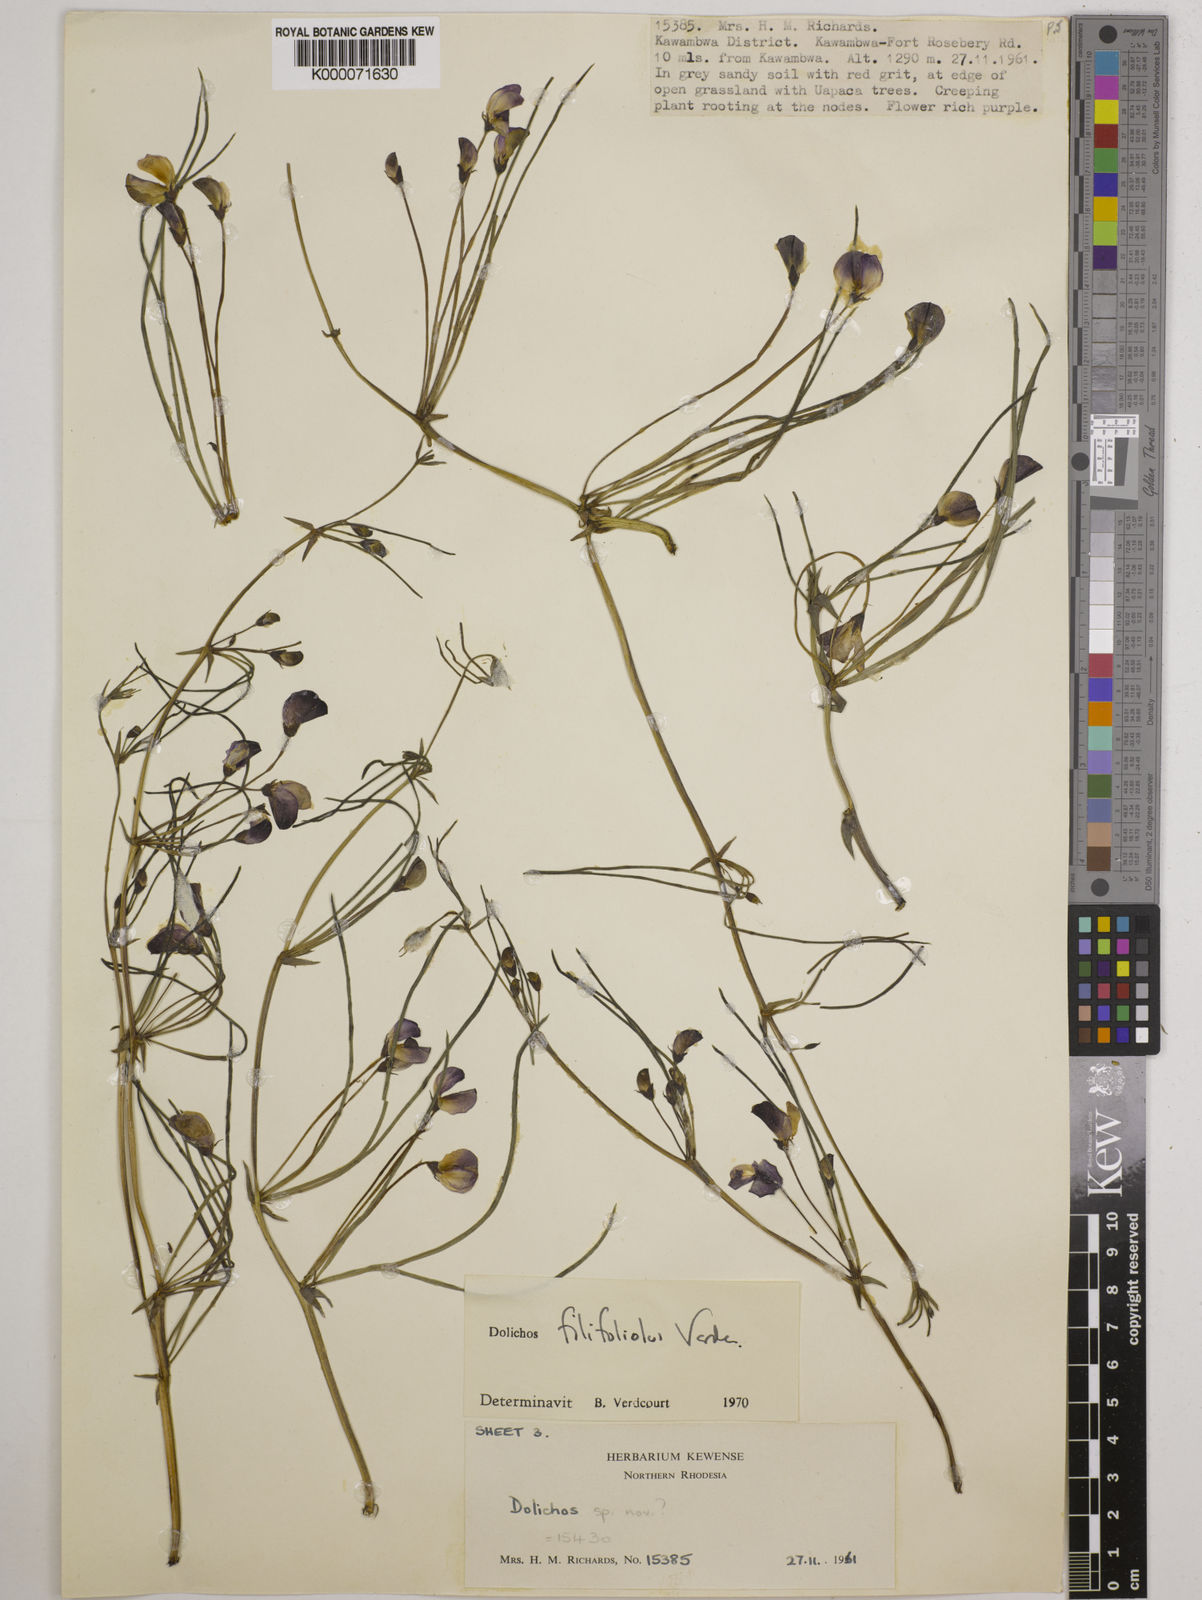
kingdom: Plantae
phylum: Tracheophyta
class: Magnoliopsida
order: Fabales
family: Fabaceae
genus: Dolichos
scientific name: Dolichos filifoliolus
